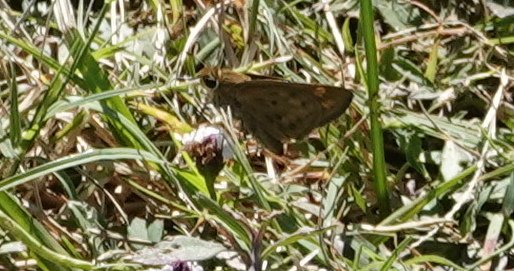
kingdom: Animalia
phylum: Arthropoda
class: Insecta
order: Lepidoptera
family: Hesperiidae
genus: Hylephila
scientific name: Hylephila phyleus
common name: Fiery Skipper
